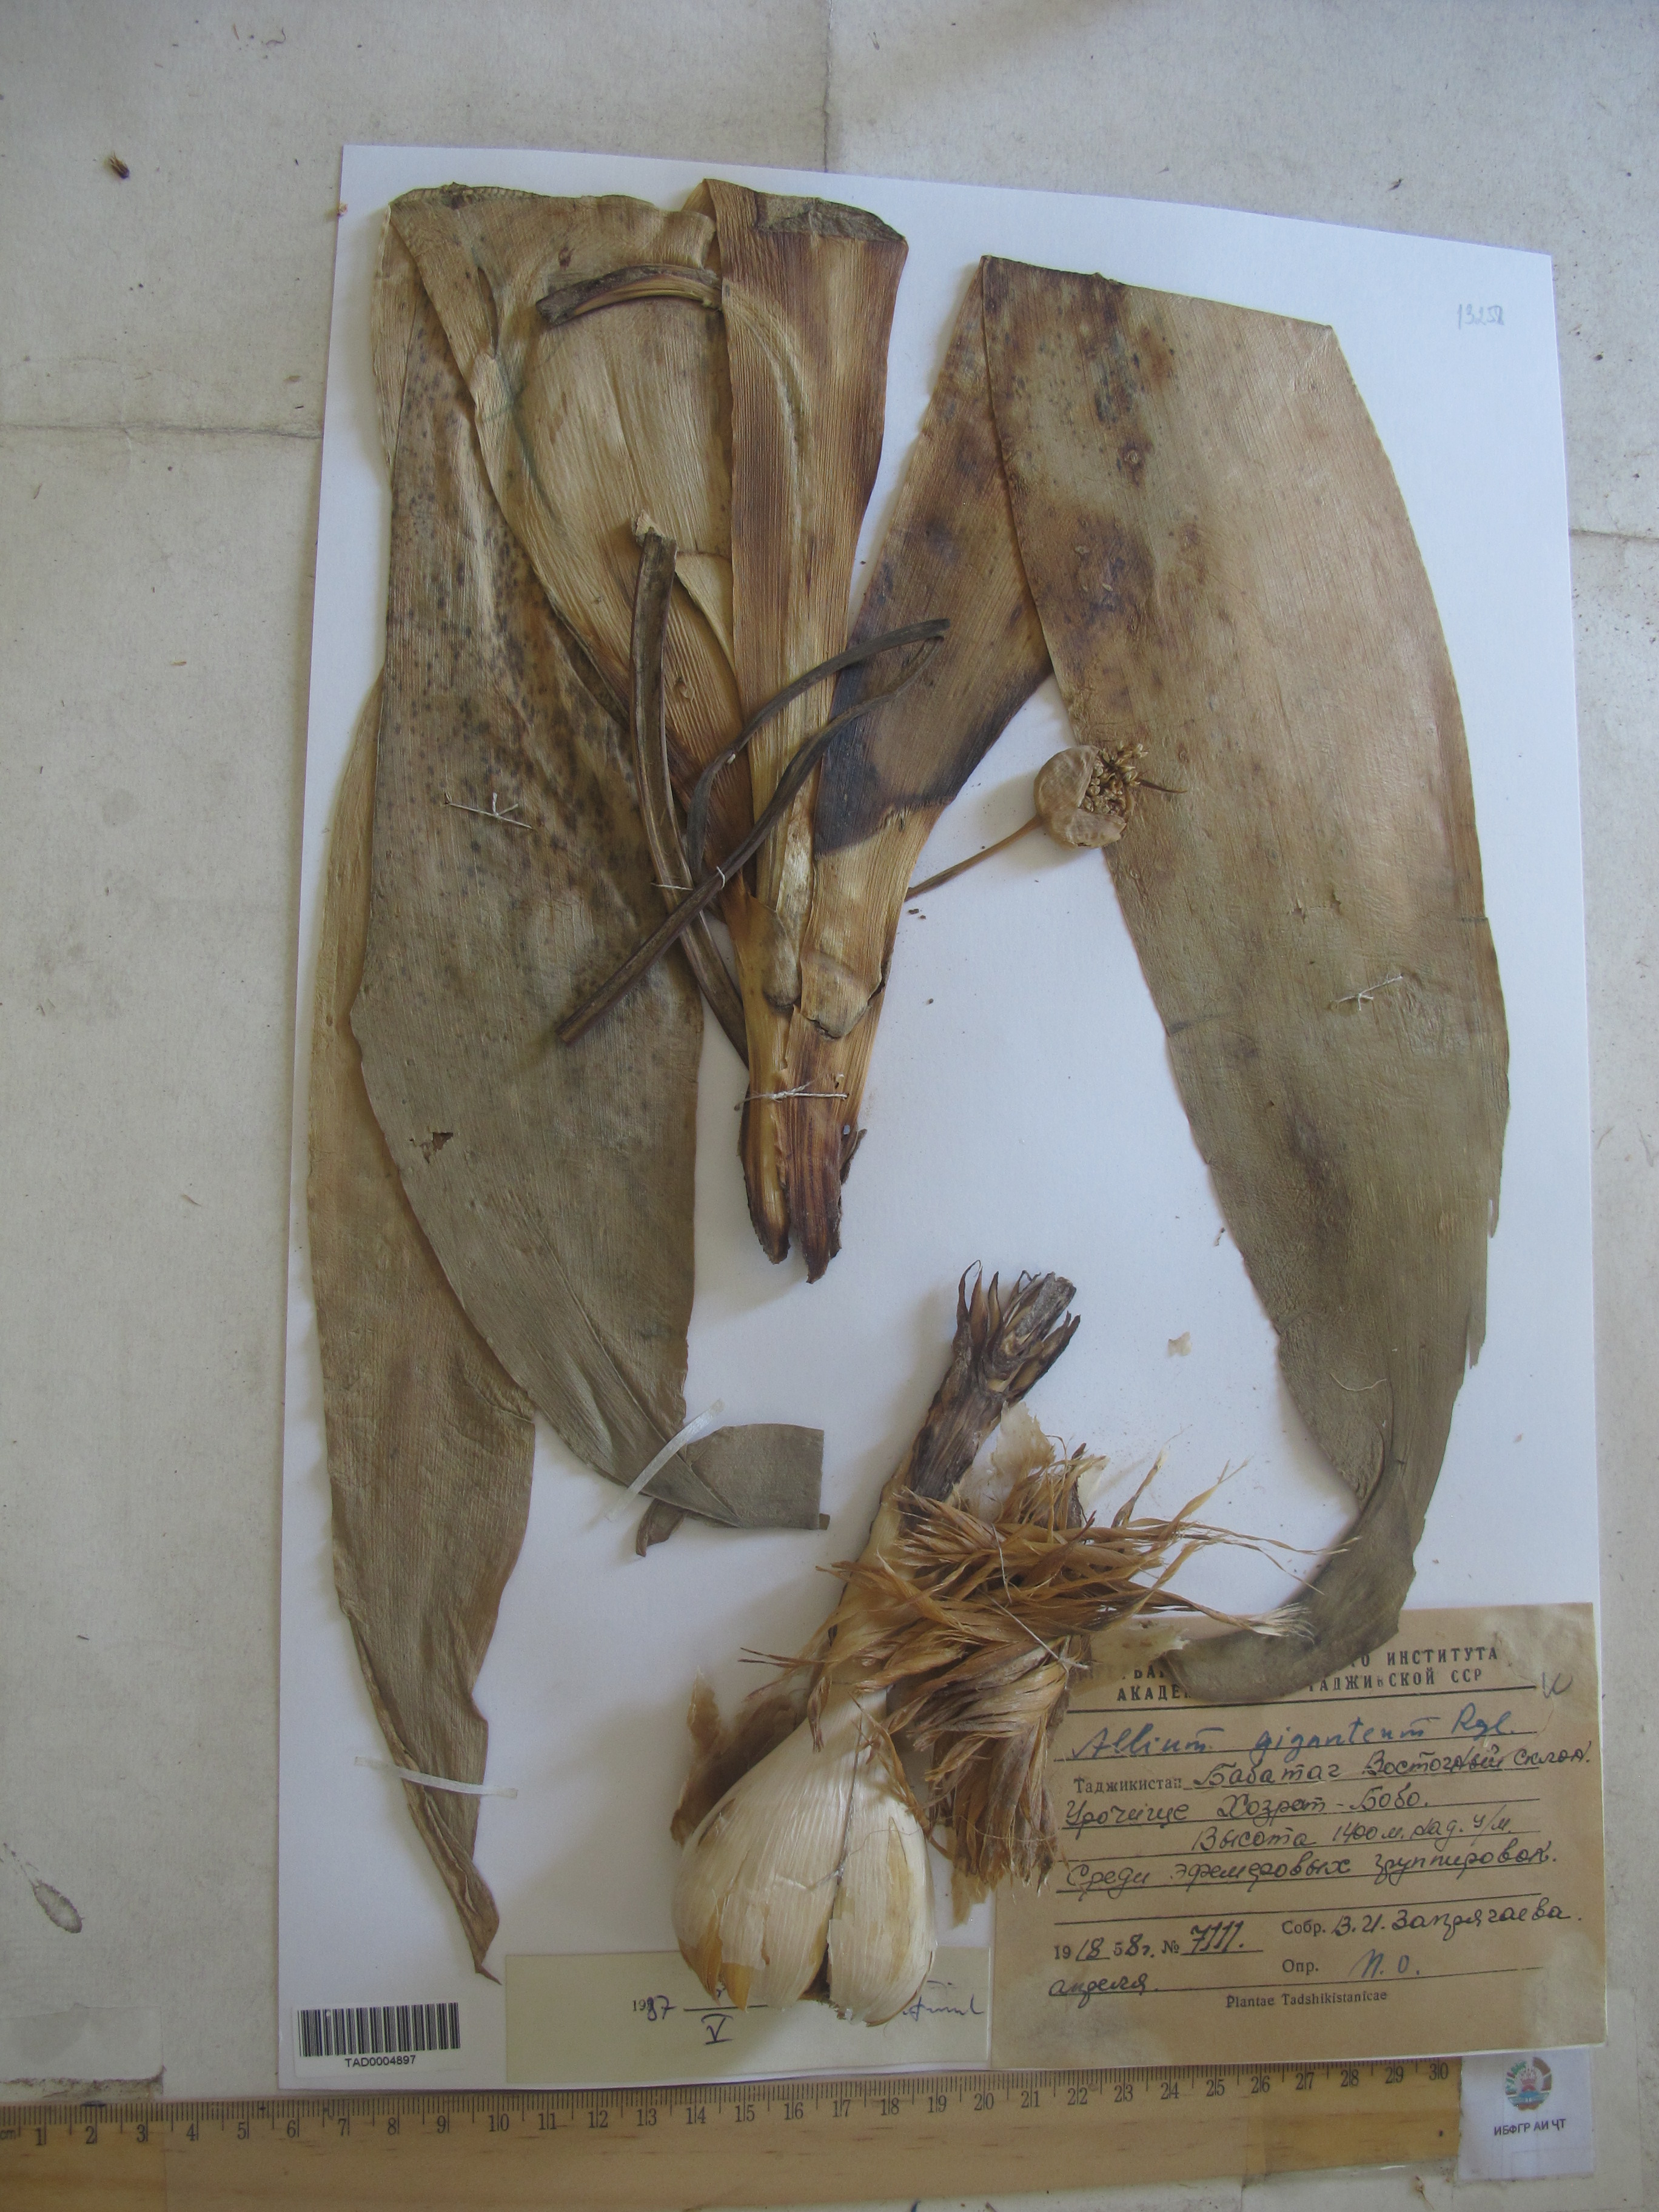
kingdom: Plantae
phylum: Tracheophyta
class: Liliopsida
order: Asparagales
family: Amaryllidaceae
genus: Allium
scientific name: Allium giganteum
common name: Giant onion
